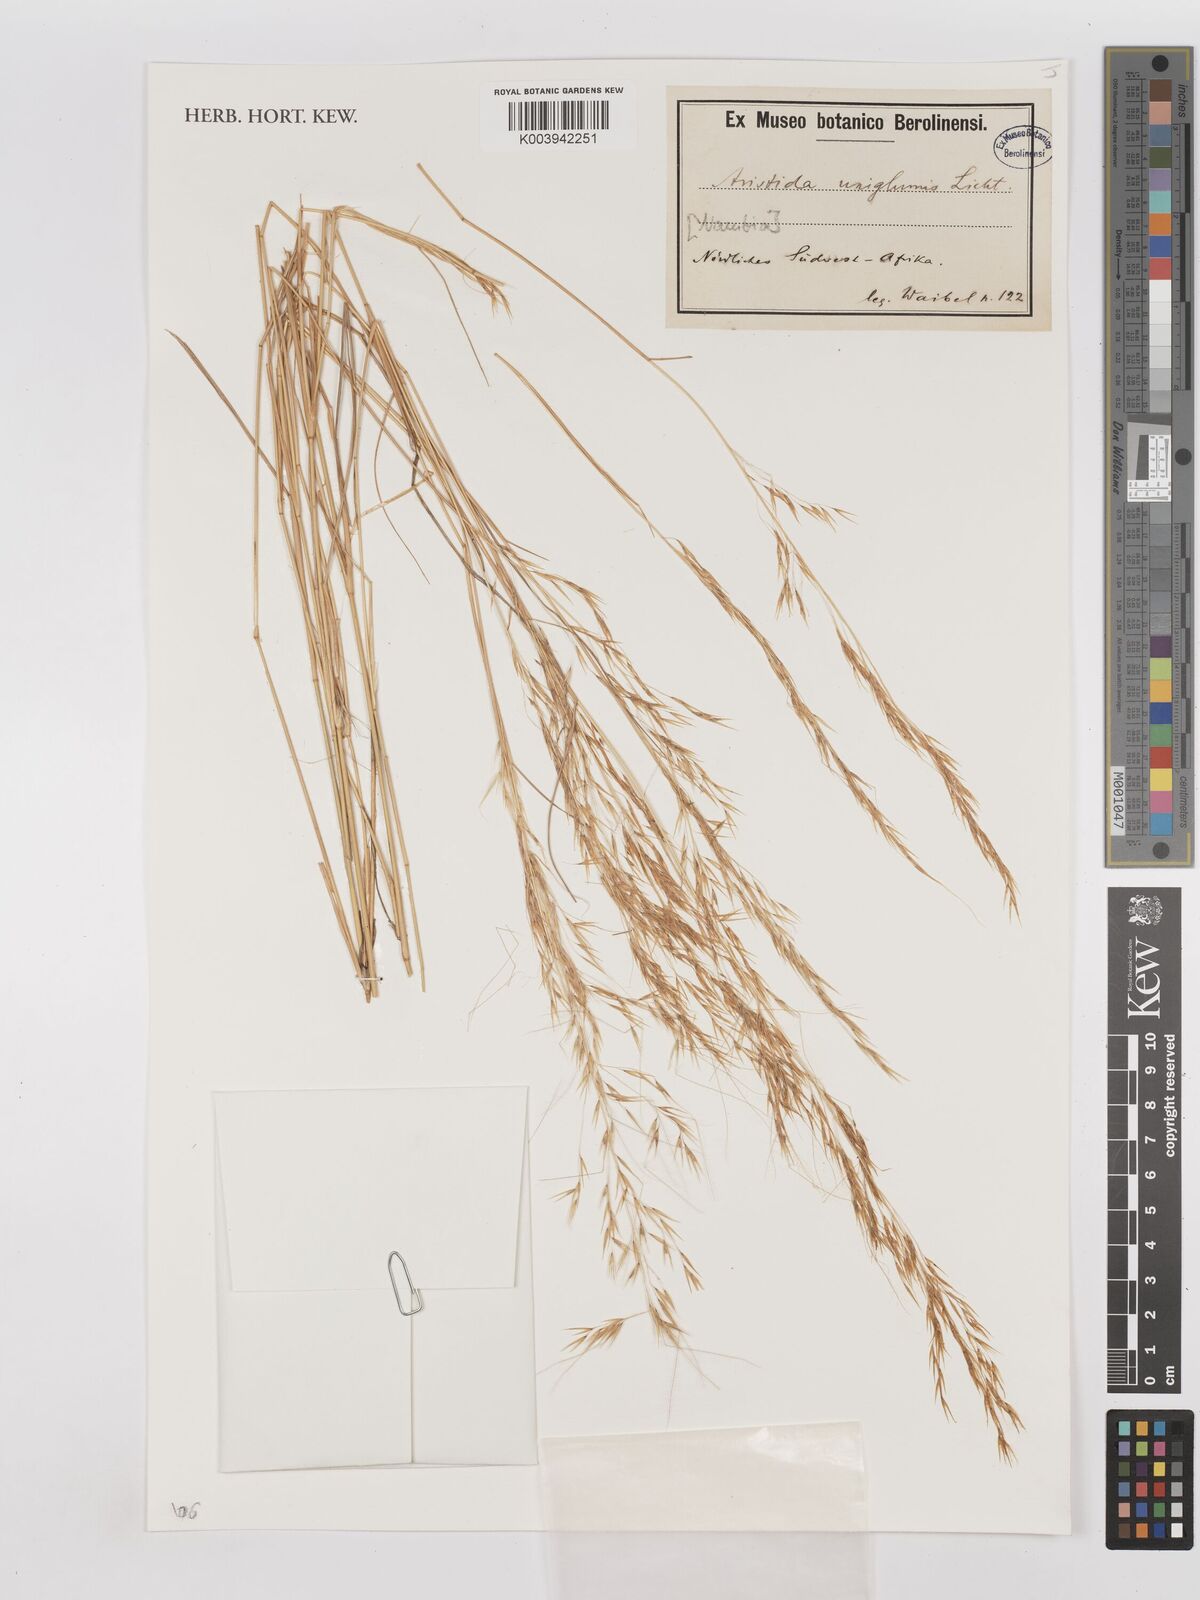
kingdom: Plantae
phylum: Tracheophyta
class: Liliopsida
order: Poales
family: Poaceae
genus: Stipagrostis
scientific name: Stipagrostis uniplumis
